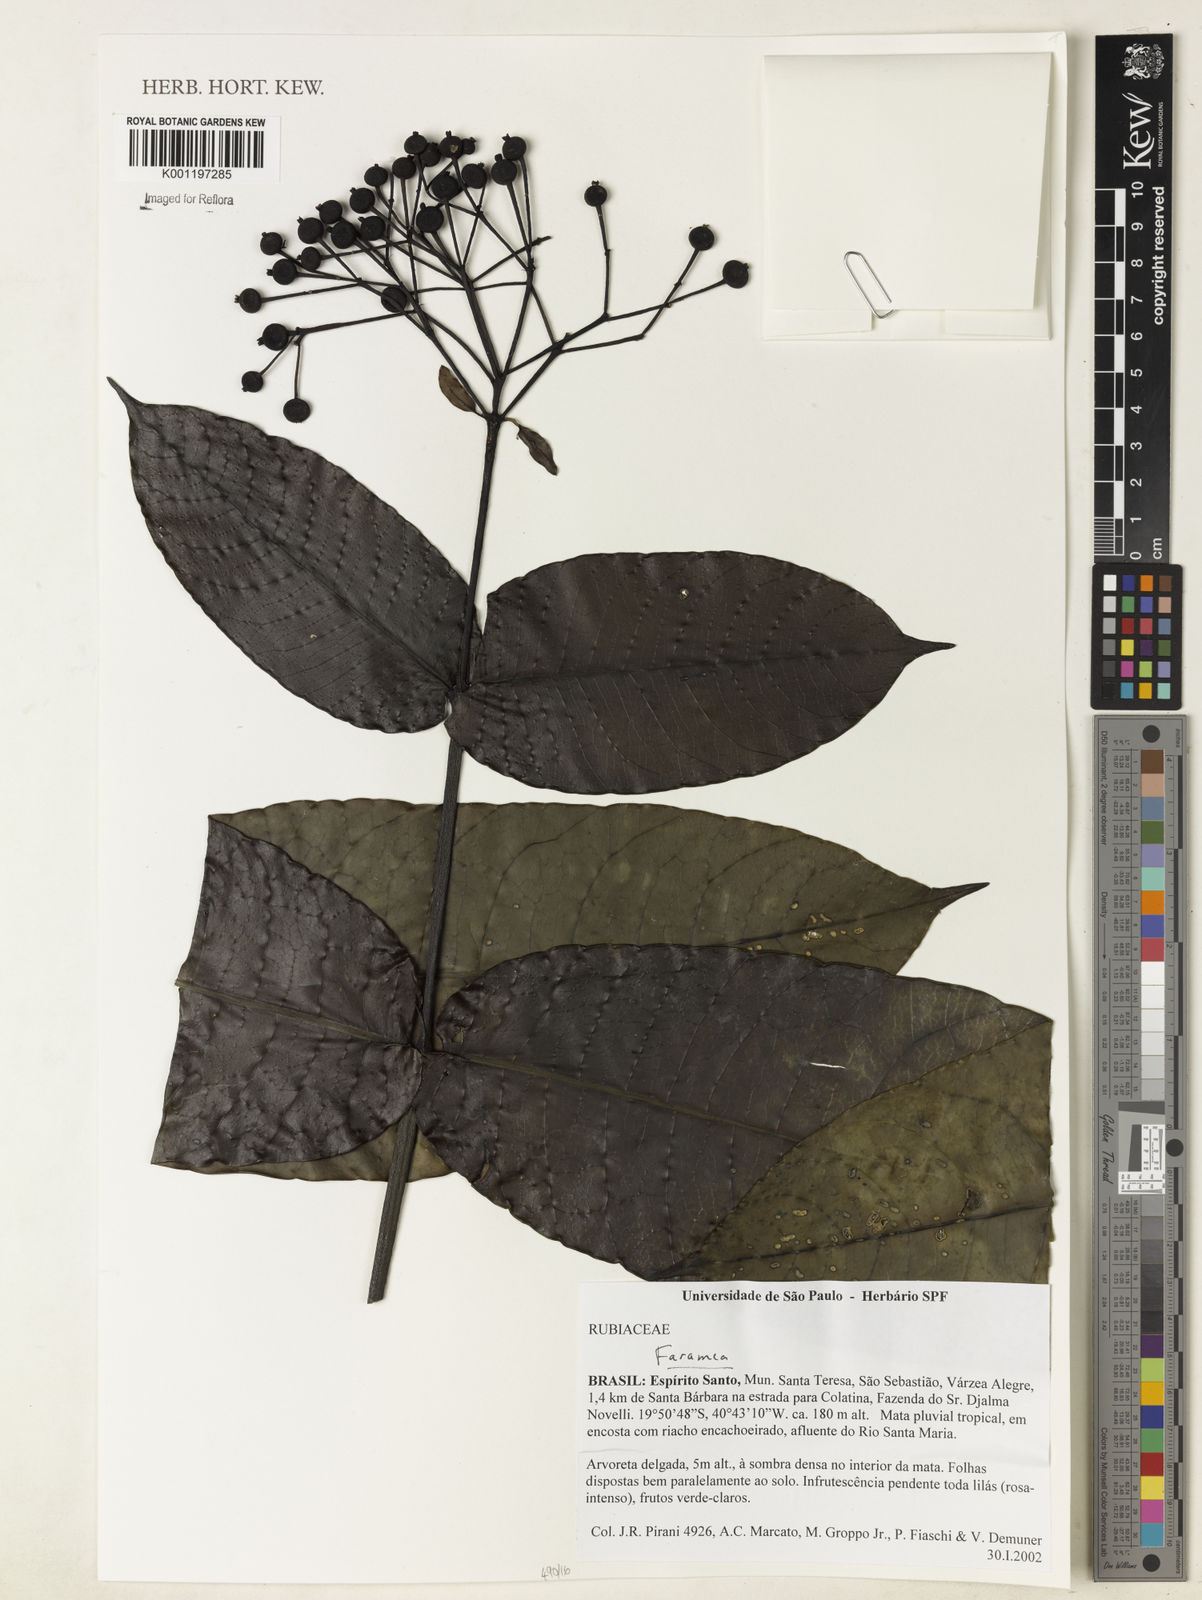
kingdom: Plantae
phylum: Tracheophyta
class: Magnoliopsida
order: Gentianales
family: Rubiaceae
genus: Faramea
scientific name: Faramea
